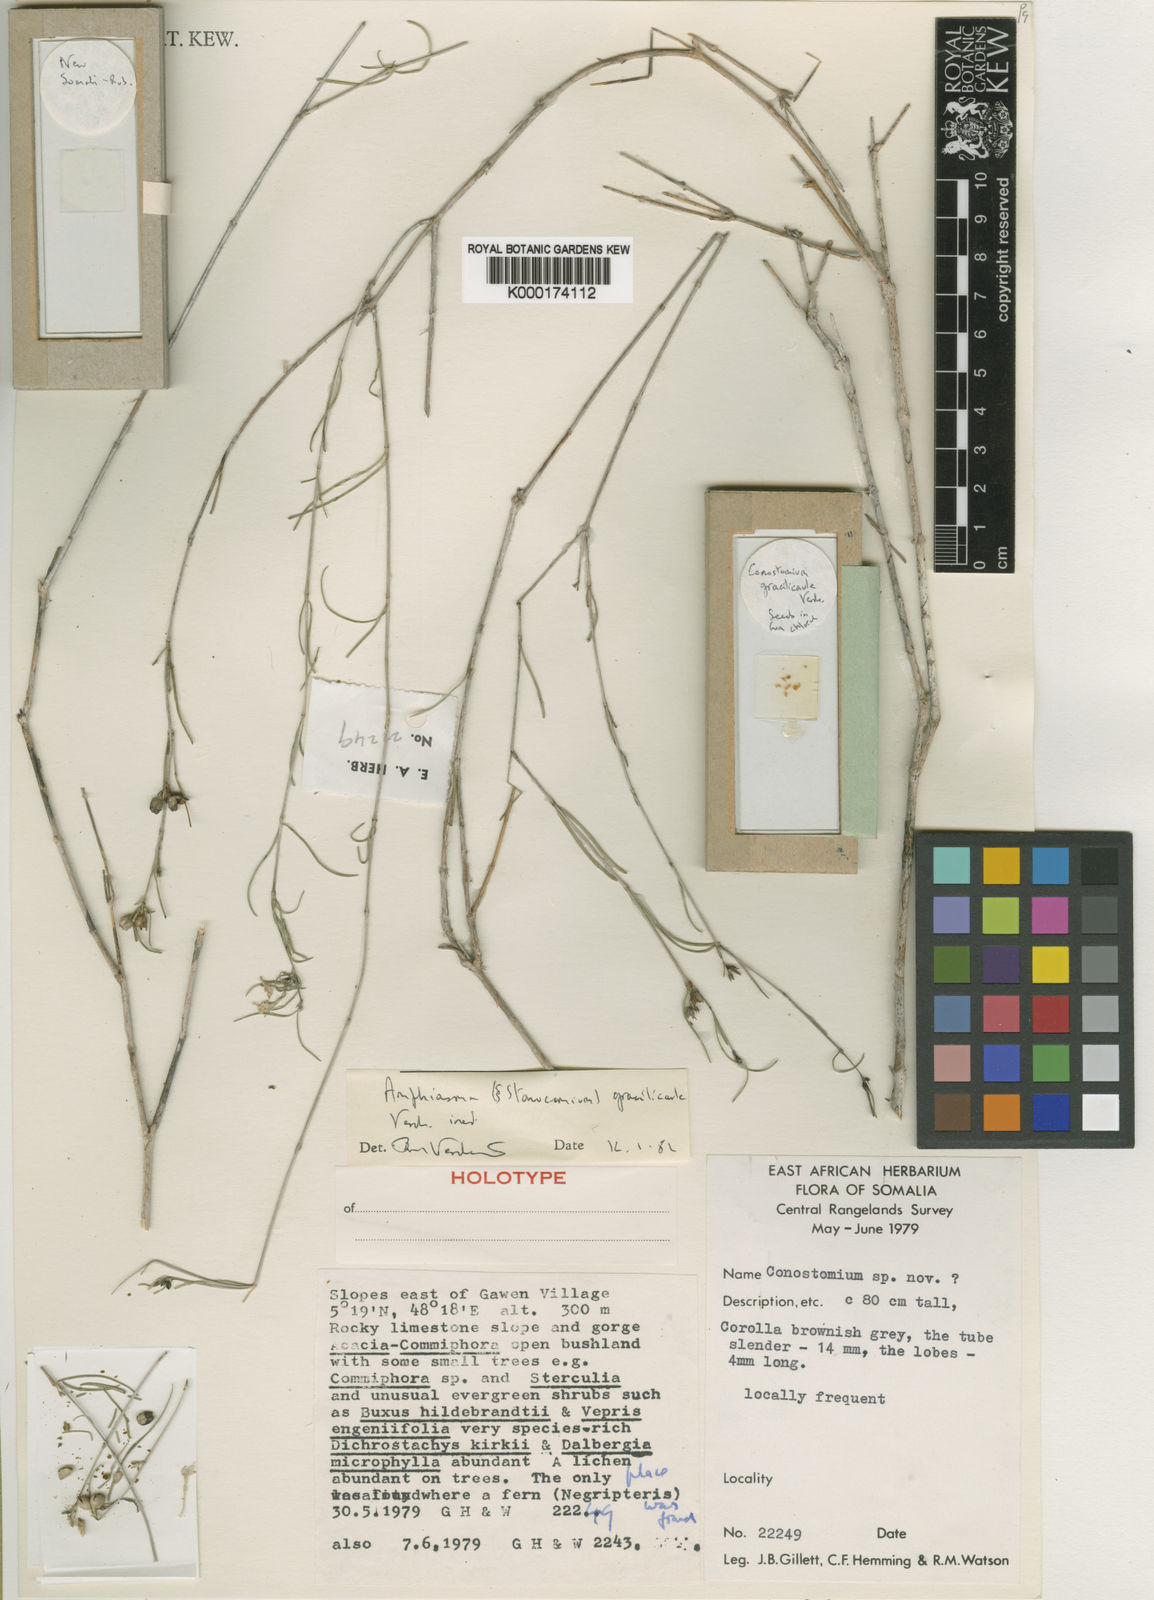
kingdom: Plantae
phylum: Tracheophyta
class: Magnoliopsida
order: Gentianales
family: Rubiaceae
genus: Pentanopsis
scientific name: Pentanopsis gracilicaulis
